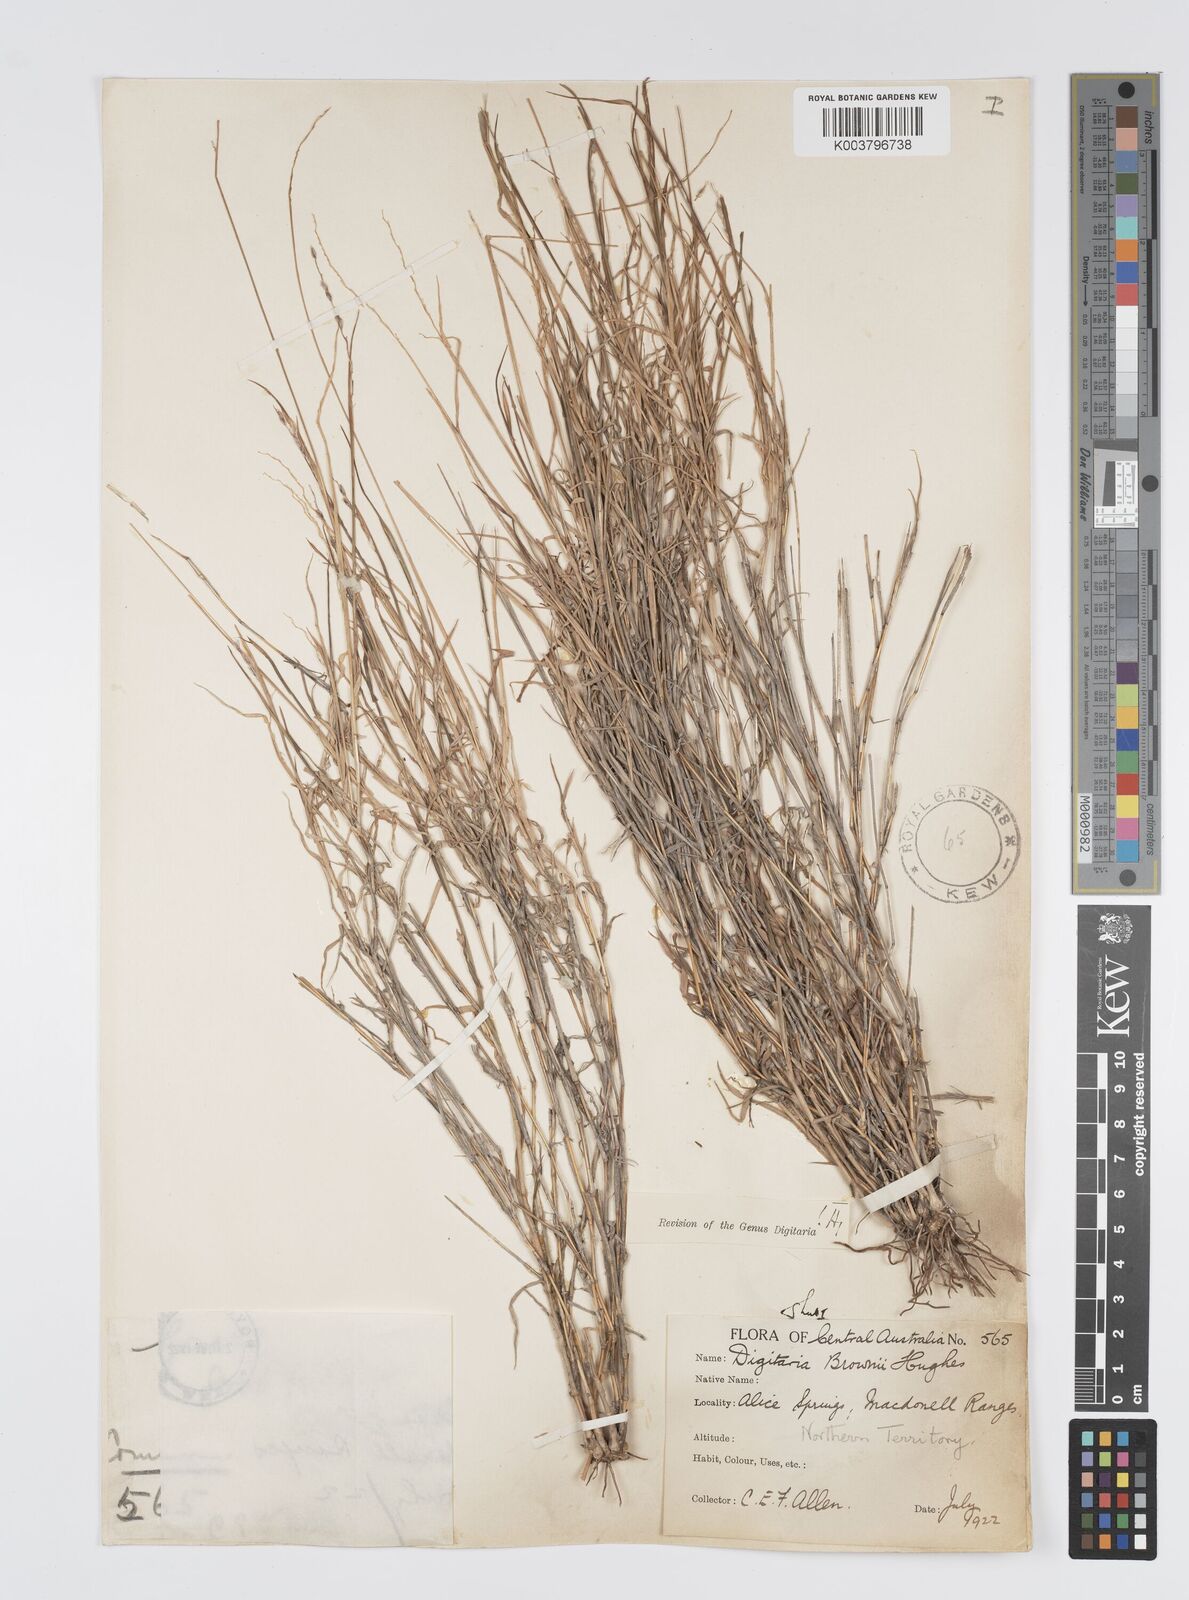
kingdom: Plantae
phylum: Tracheophyta
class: Liliopsida
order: Poales
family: Poaceae
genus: Digitaria
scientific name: Digitaria brownii
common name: Cotton grass
